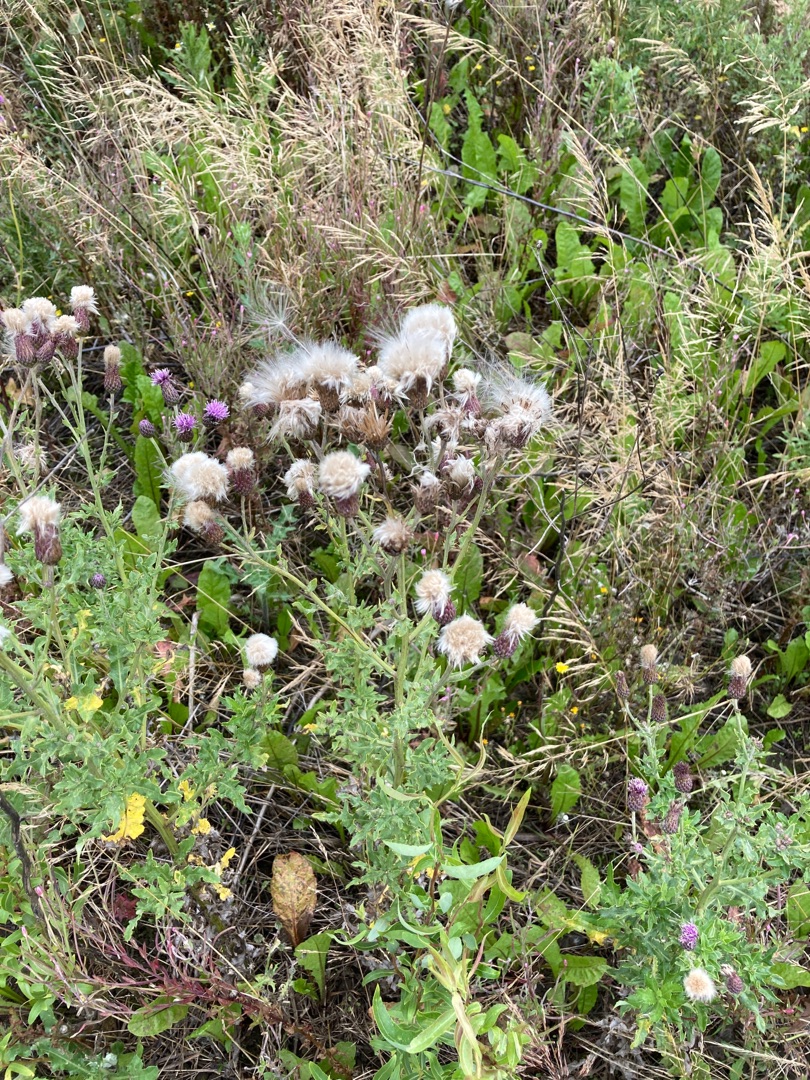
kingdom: Plantae
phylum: Tracheophyta
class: Magnoliopsida
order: Asterales
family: Asteraceae
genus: Cirsium
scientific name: Cirsium arvense
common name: Ager-tidsel
